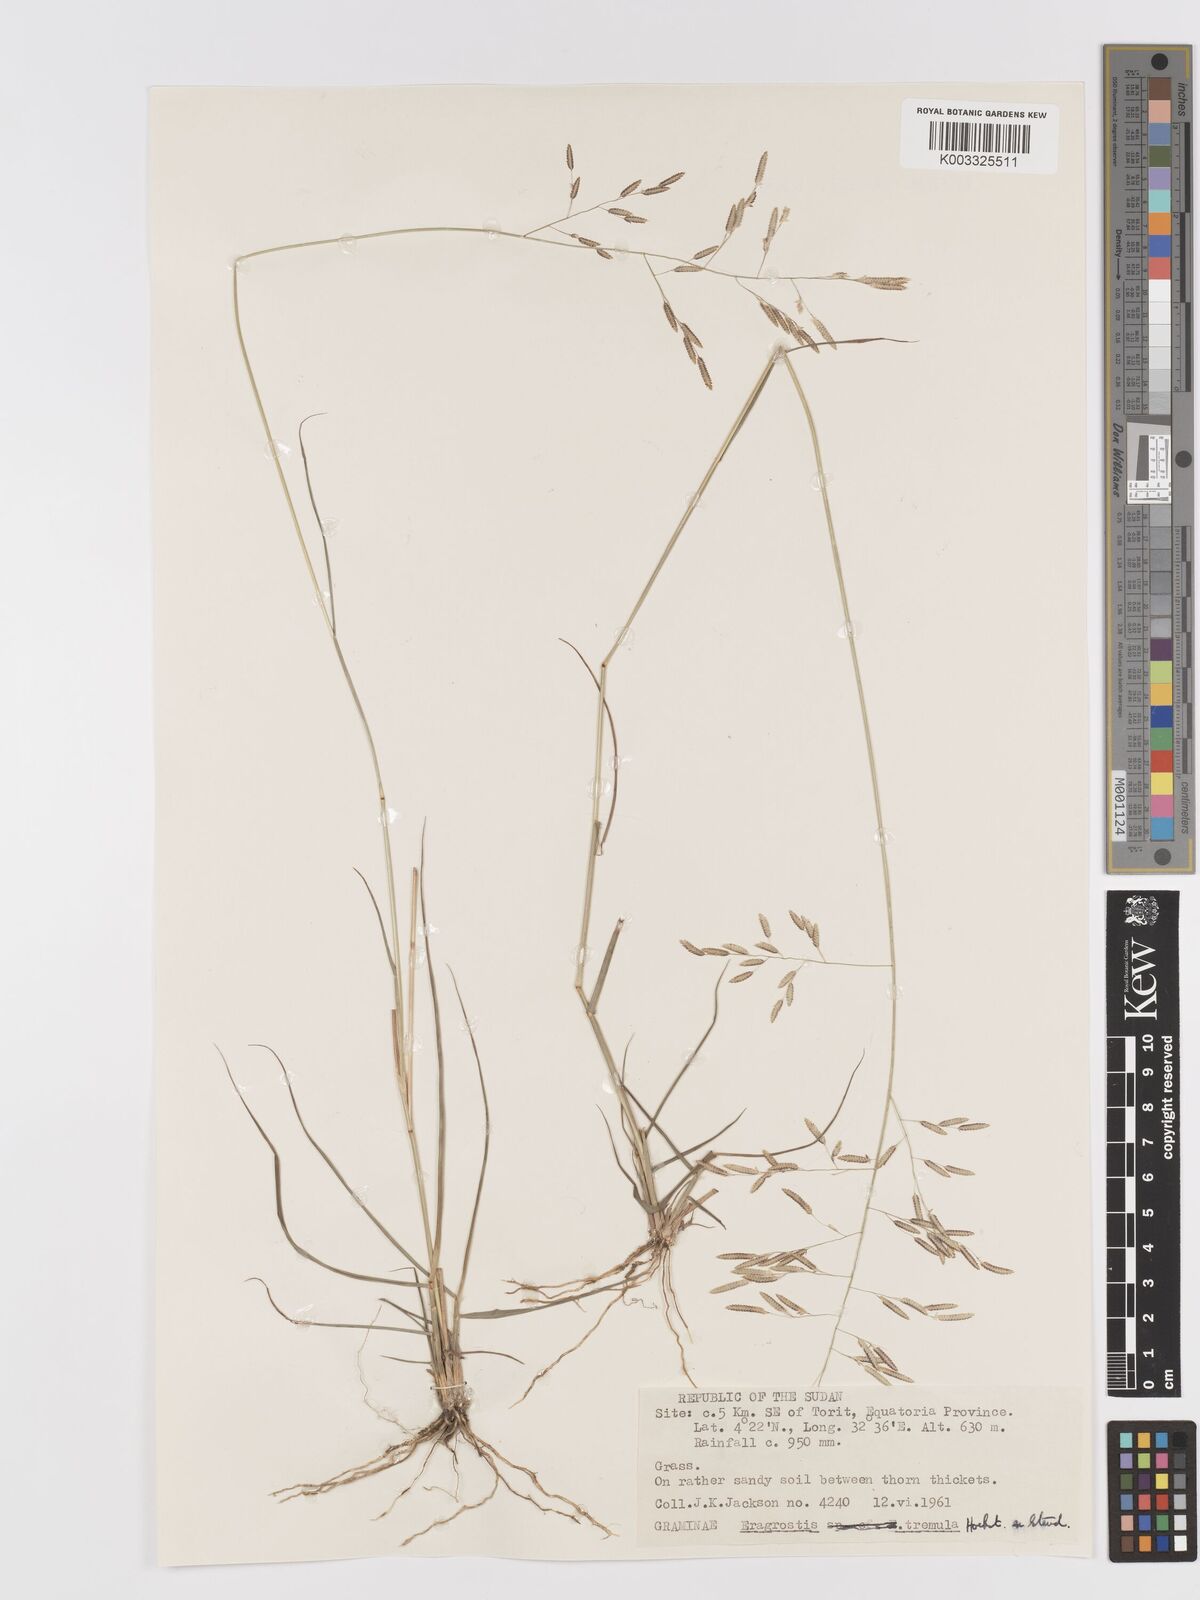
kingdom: Plantae
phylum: Tracheophyta
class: Liliopsida
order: Poales
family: Poaceae
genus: Eragrostis
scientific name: Eragrostis tremula
